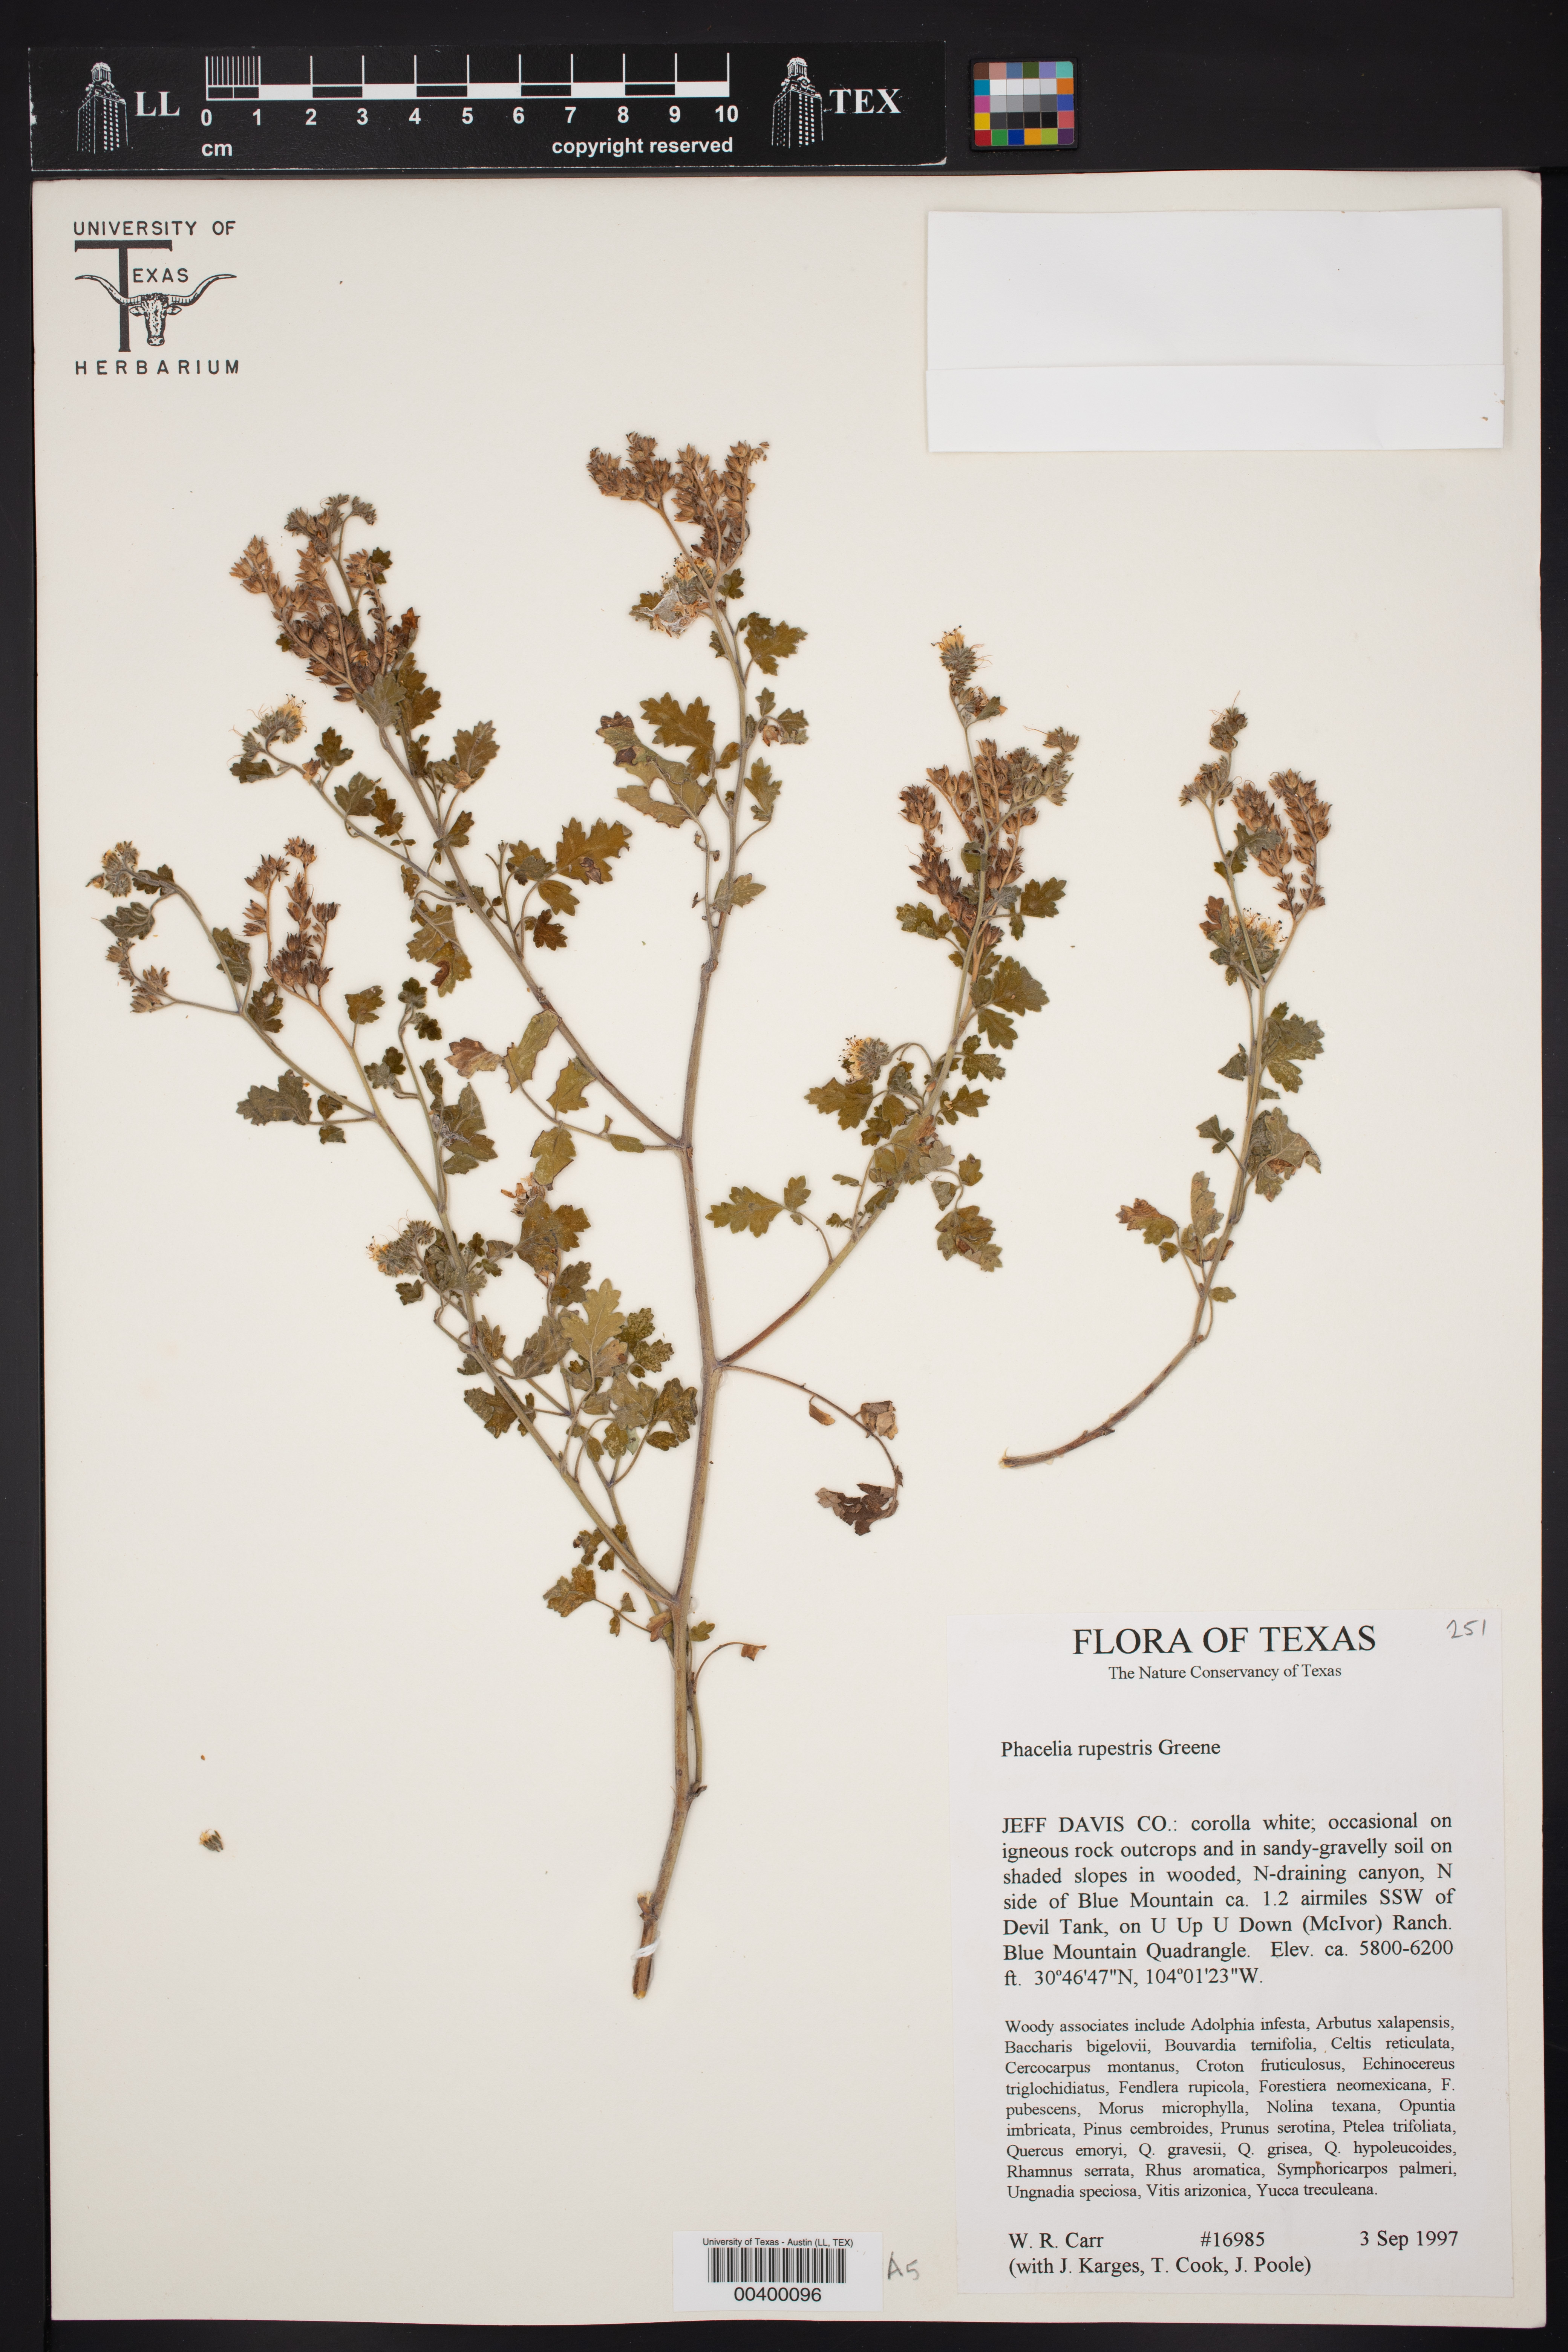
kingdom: Plantae
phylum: Tracheophyta
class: Magnoliopsida
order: Boraginales
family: Hydrophyllaceae
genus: Phacelia
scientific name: Phacelia rupestris
